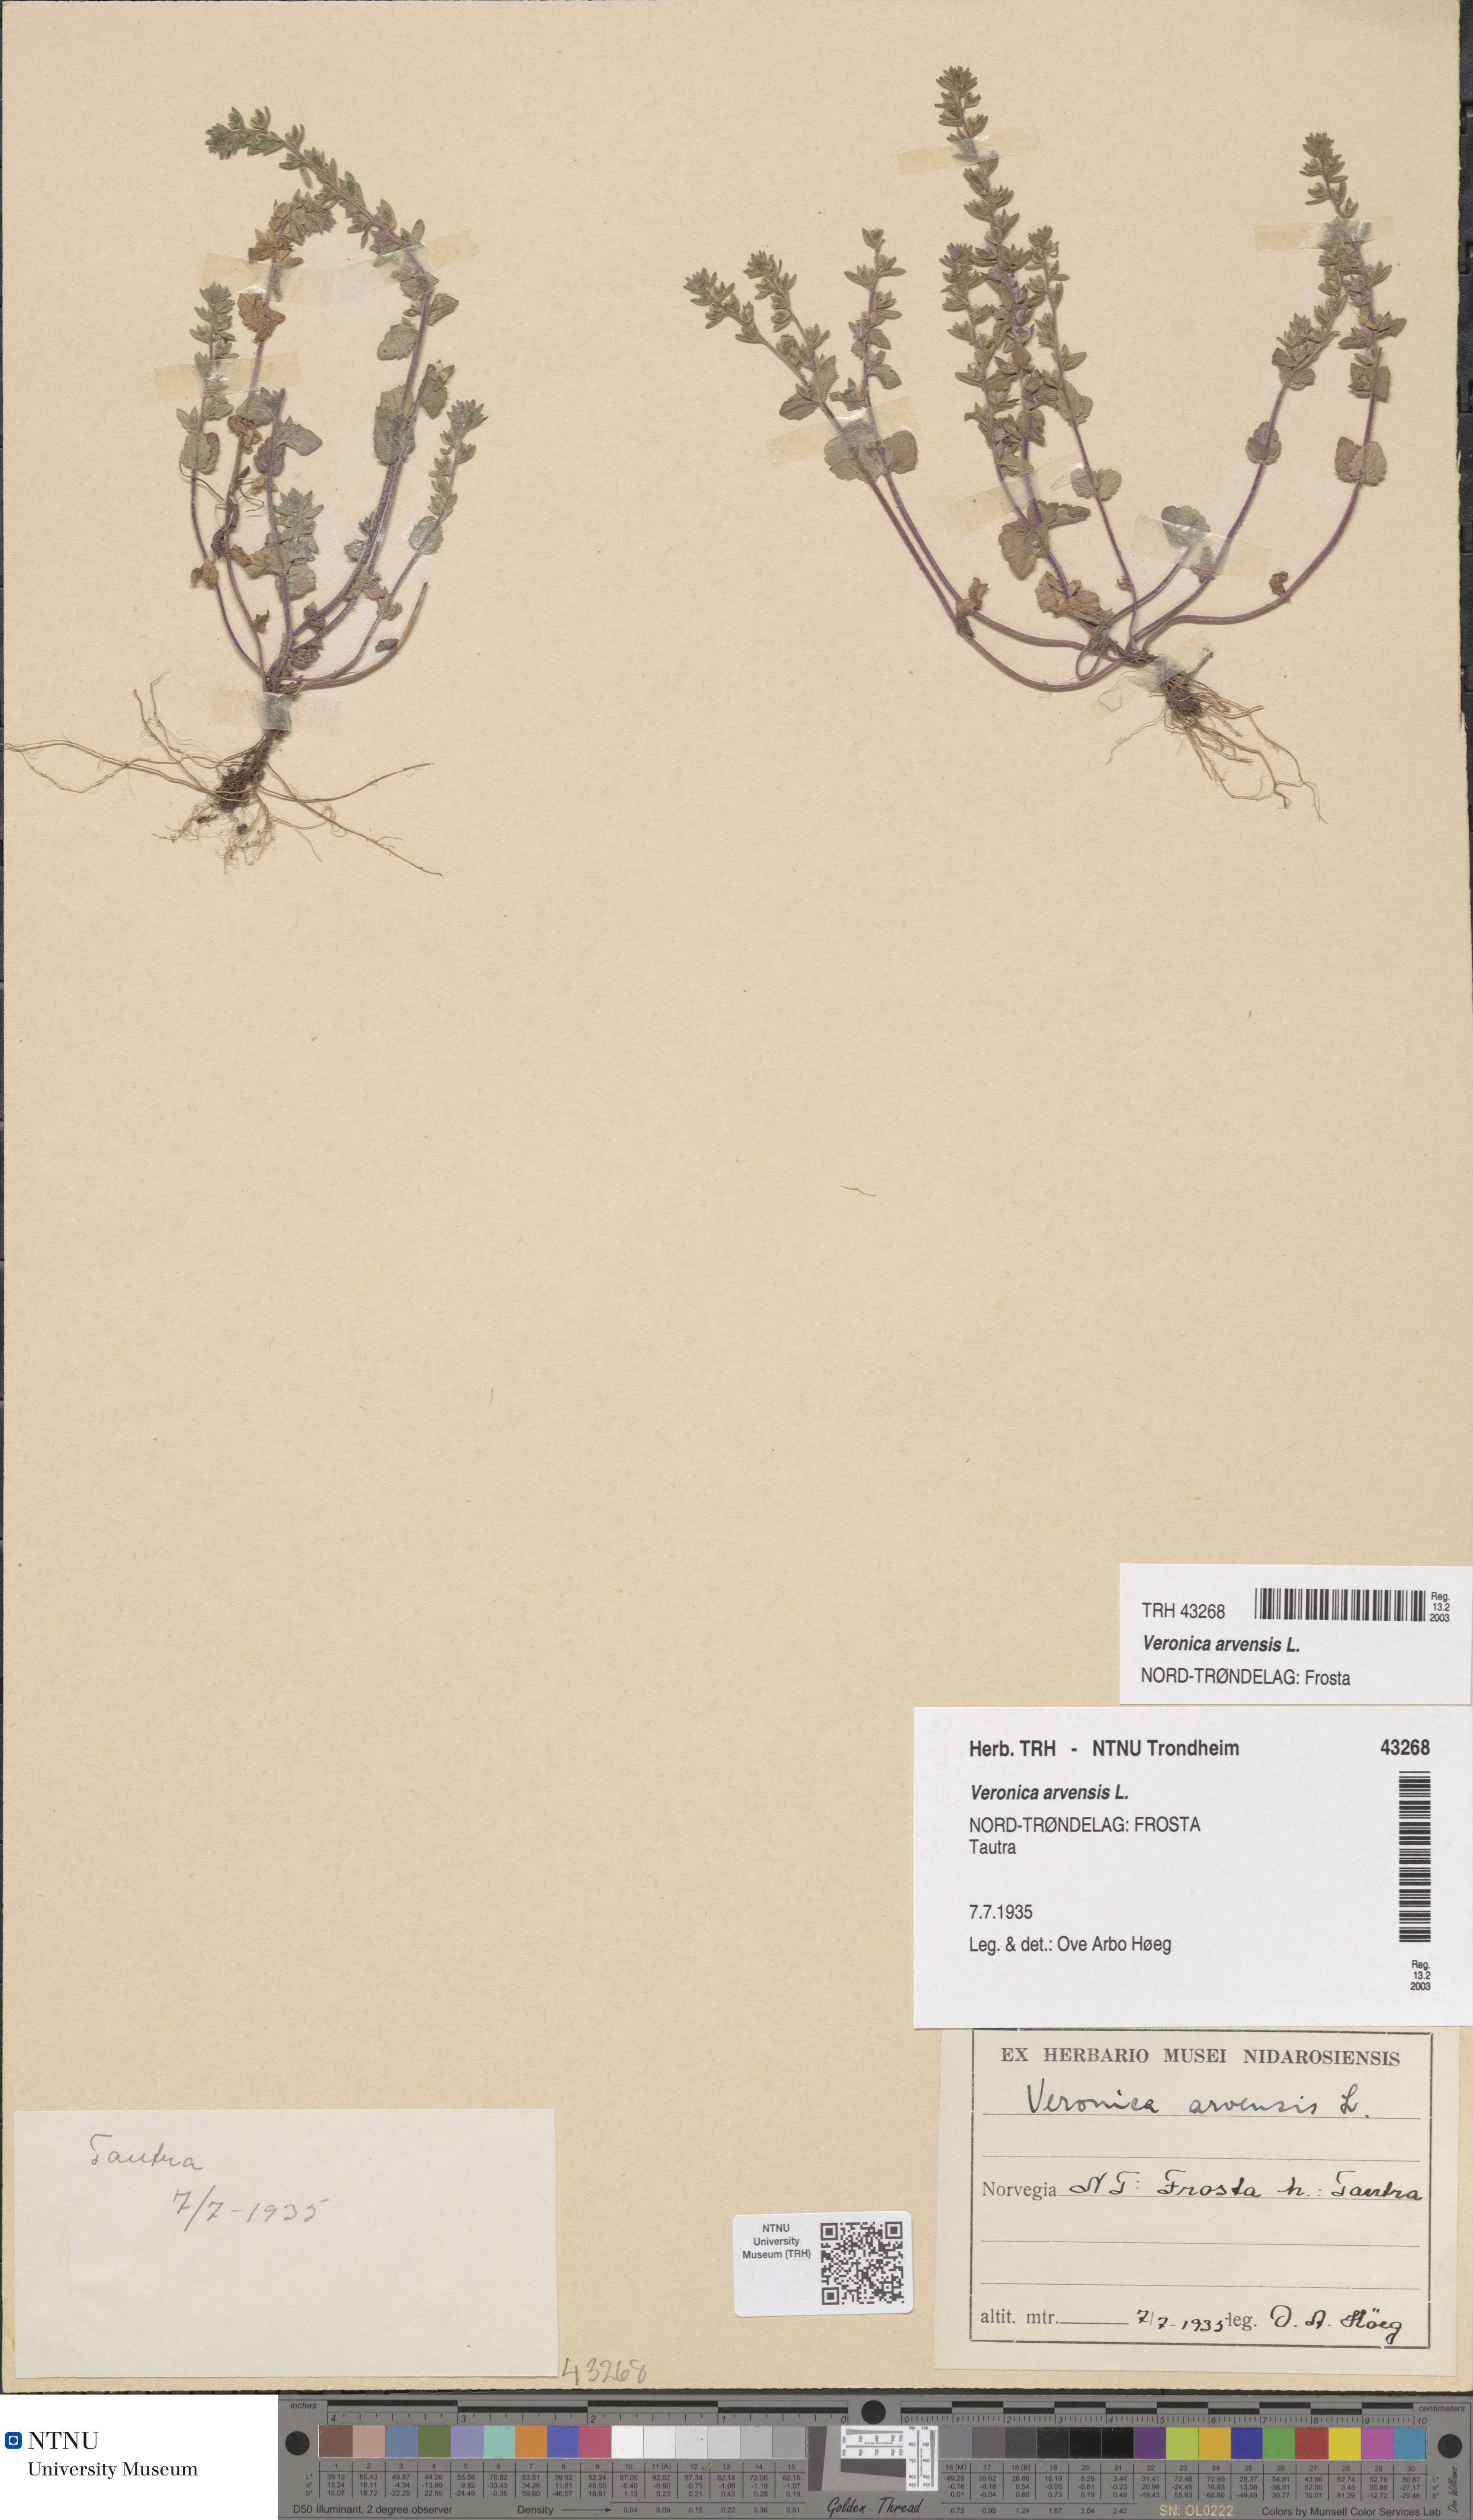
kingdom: Plantae
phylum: Tracheophyta
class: Magnoliopsida
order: Lamiales
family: Plantaginaceae
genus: Veronica
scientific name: Veronica arvensis
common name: Corn speedwell
